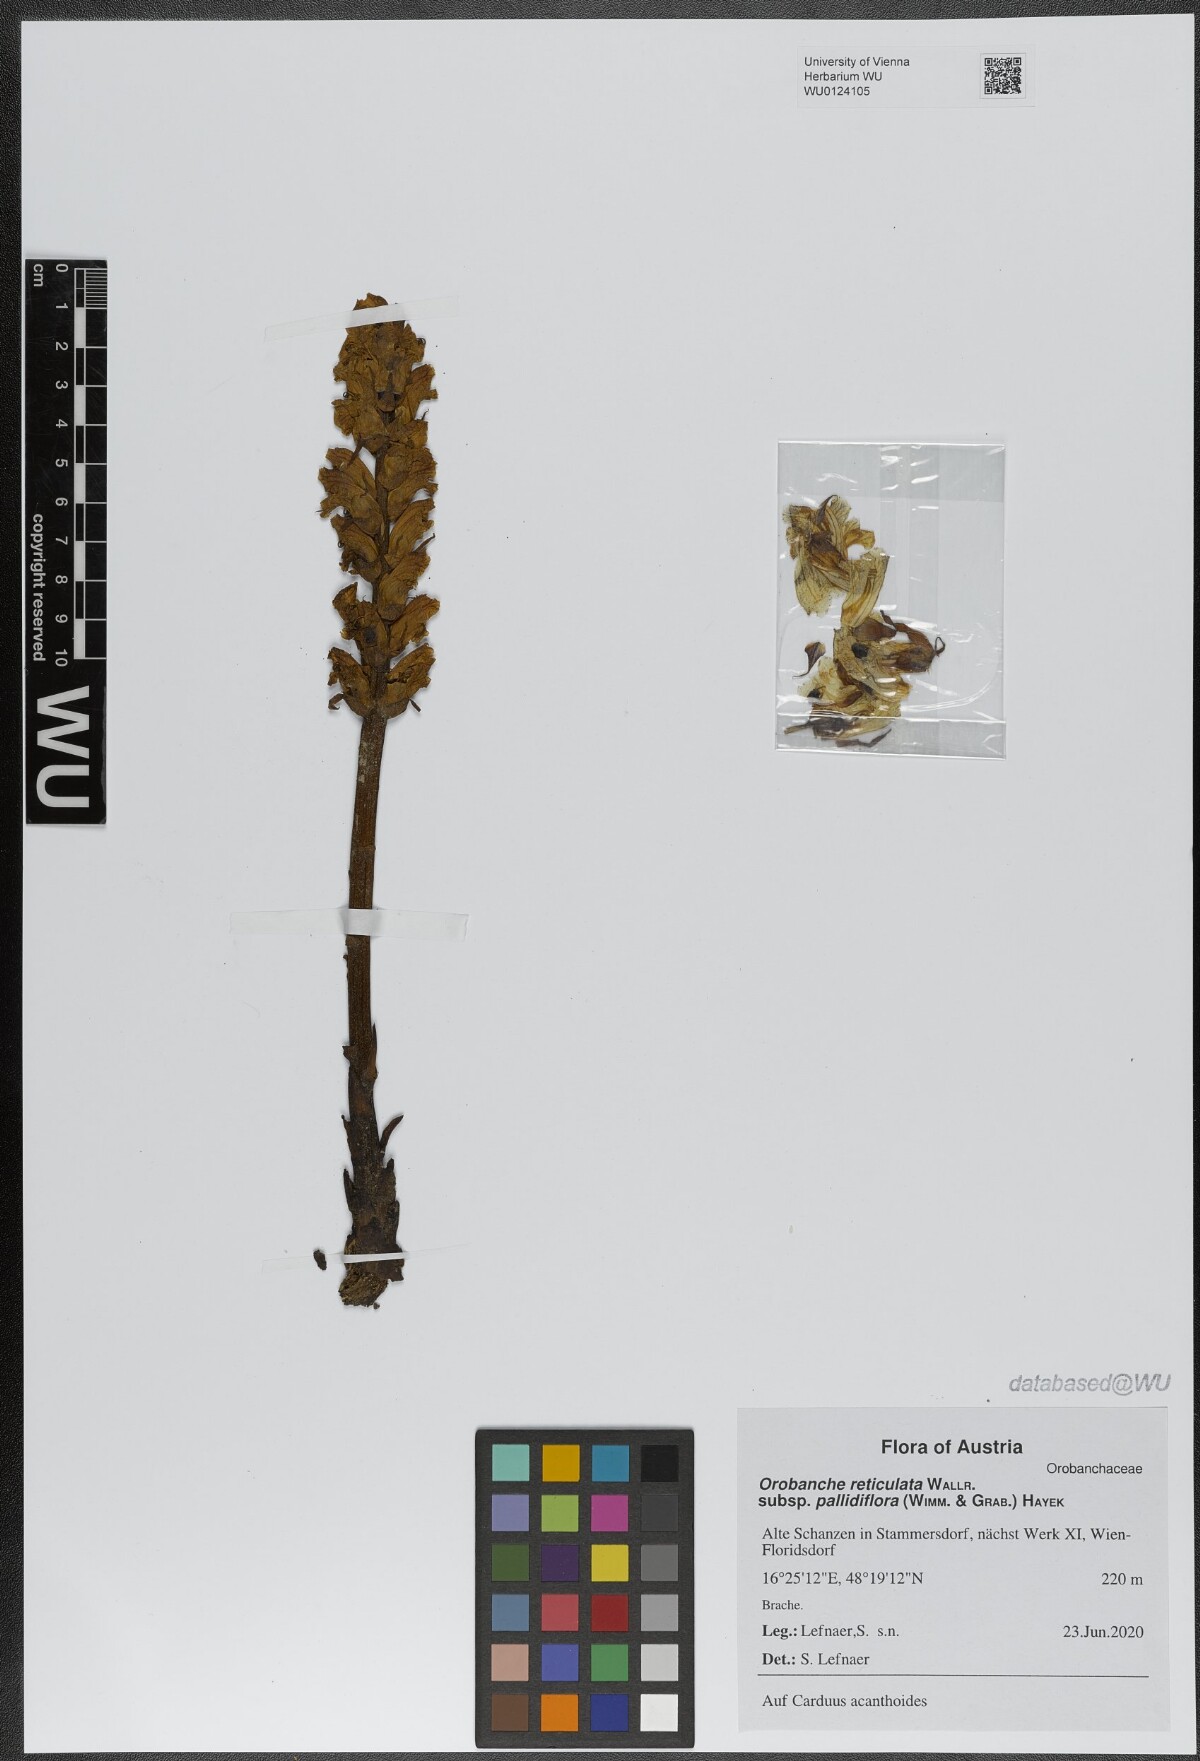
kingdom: Plantae
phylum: Tracheophyta
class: Magnoliopsida
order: Lamiales
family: Orobanchaceae
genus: Orobanche
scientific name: Orobanche reticulata
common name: Thistle broomrape
